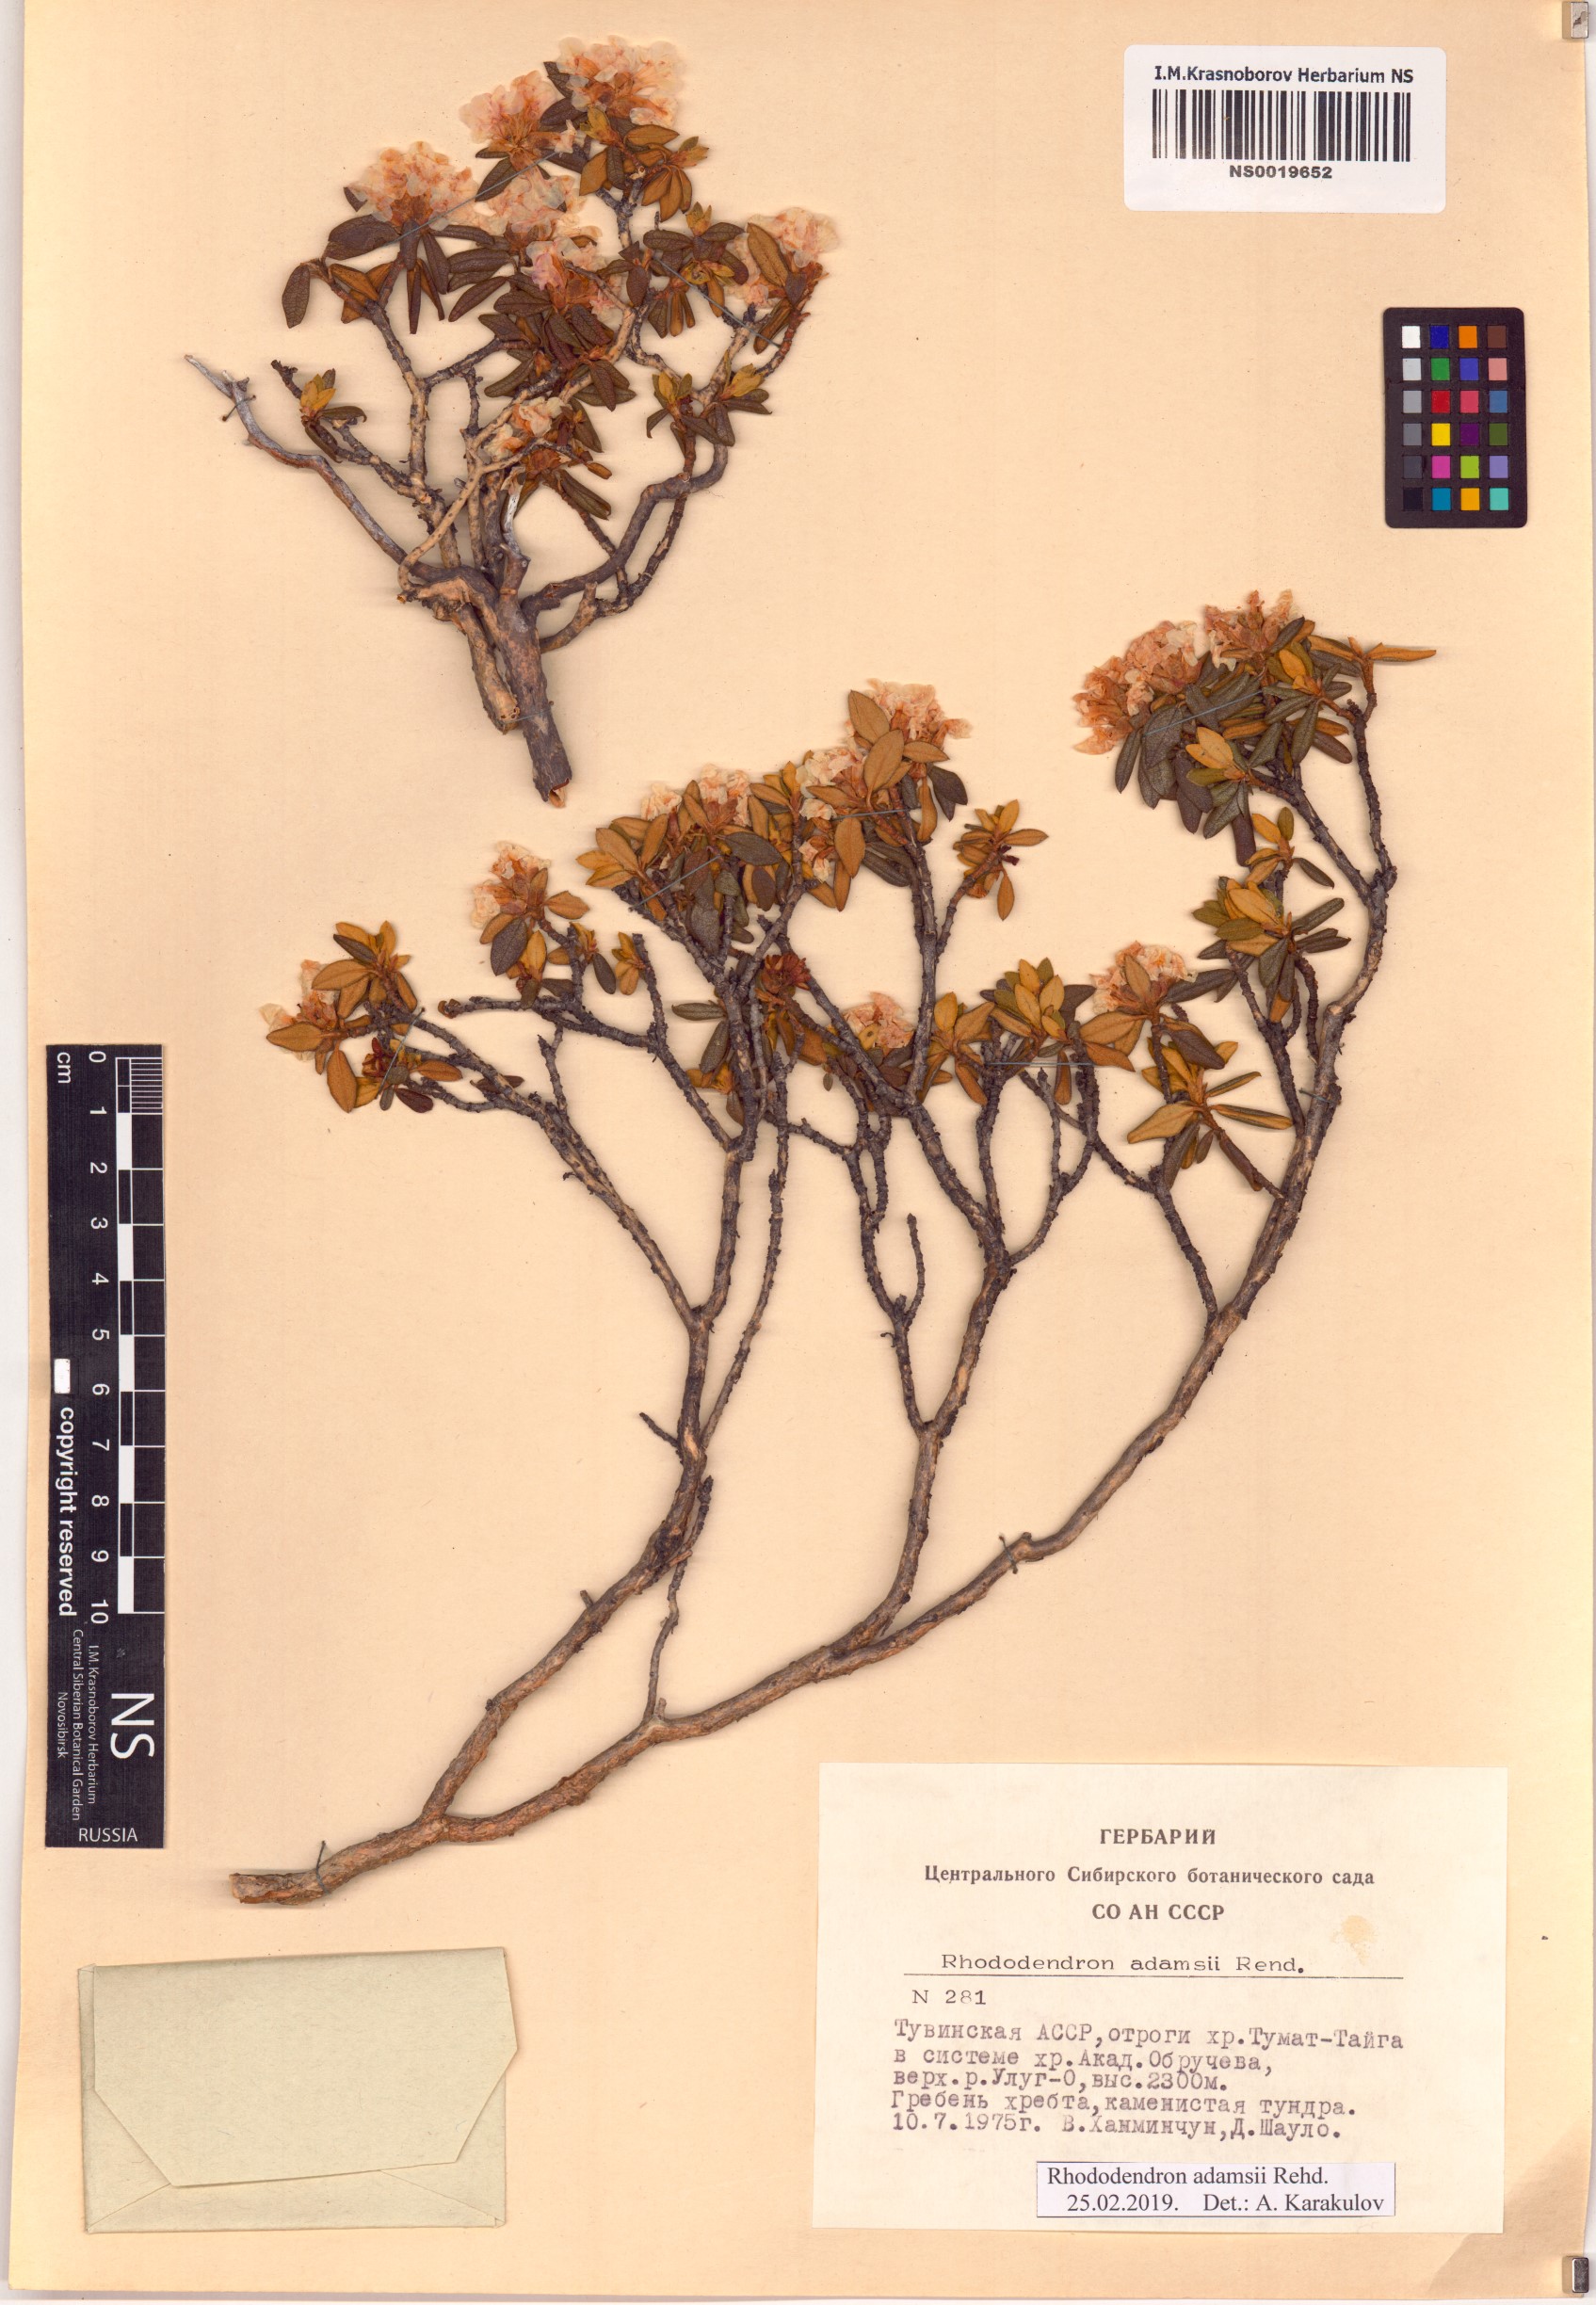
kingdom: Plantae
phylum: Tracheophyta
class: Magnoliopsida
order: Ericales
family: Ericaceae
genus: Rhododendron
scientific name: Rhododendron adamsii
